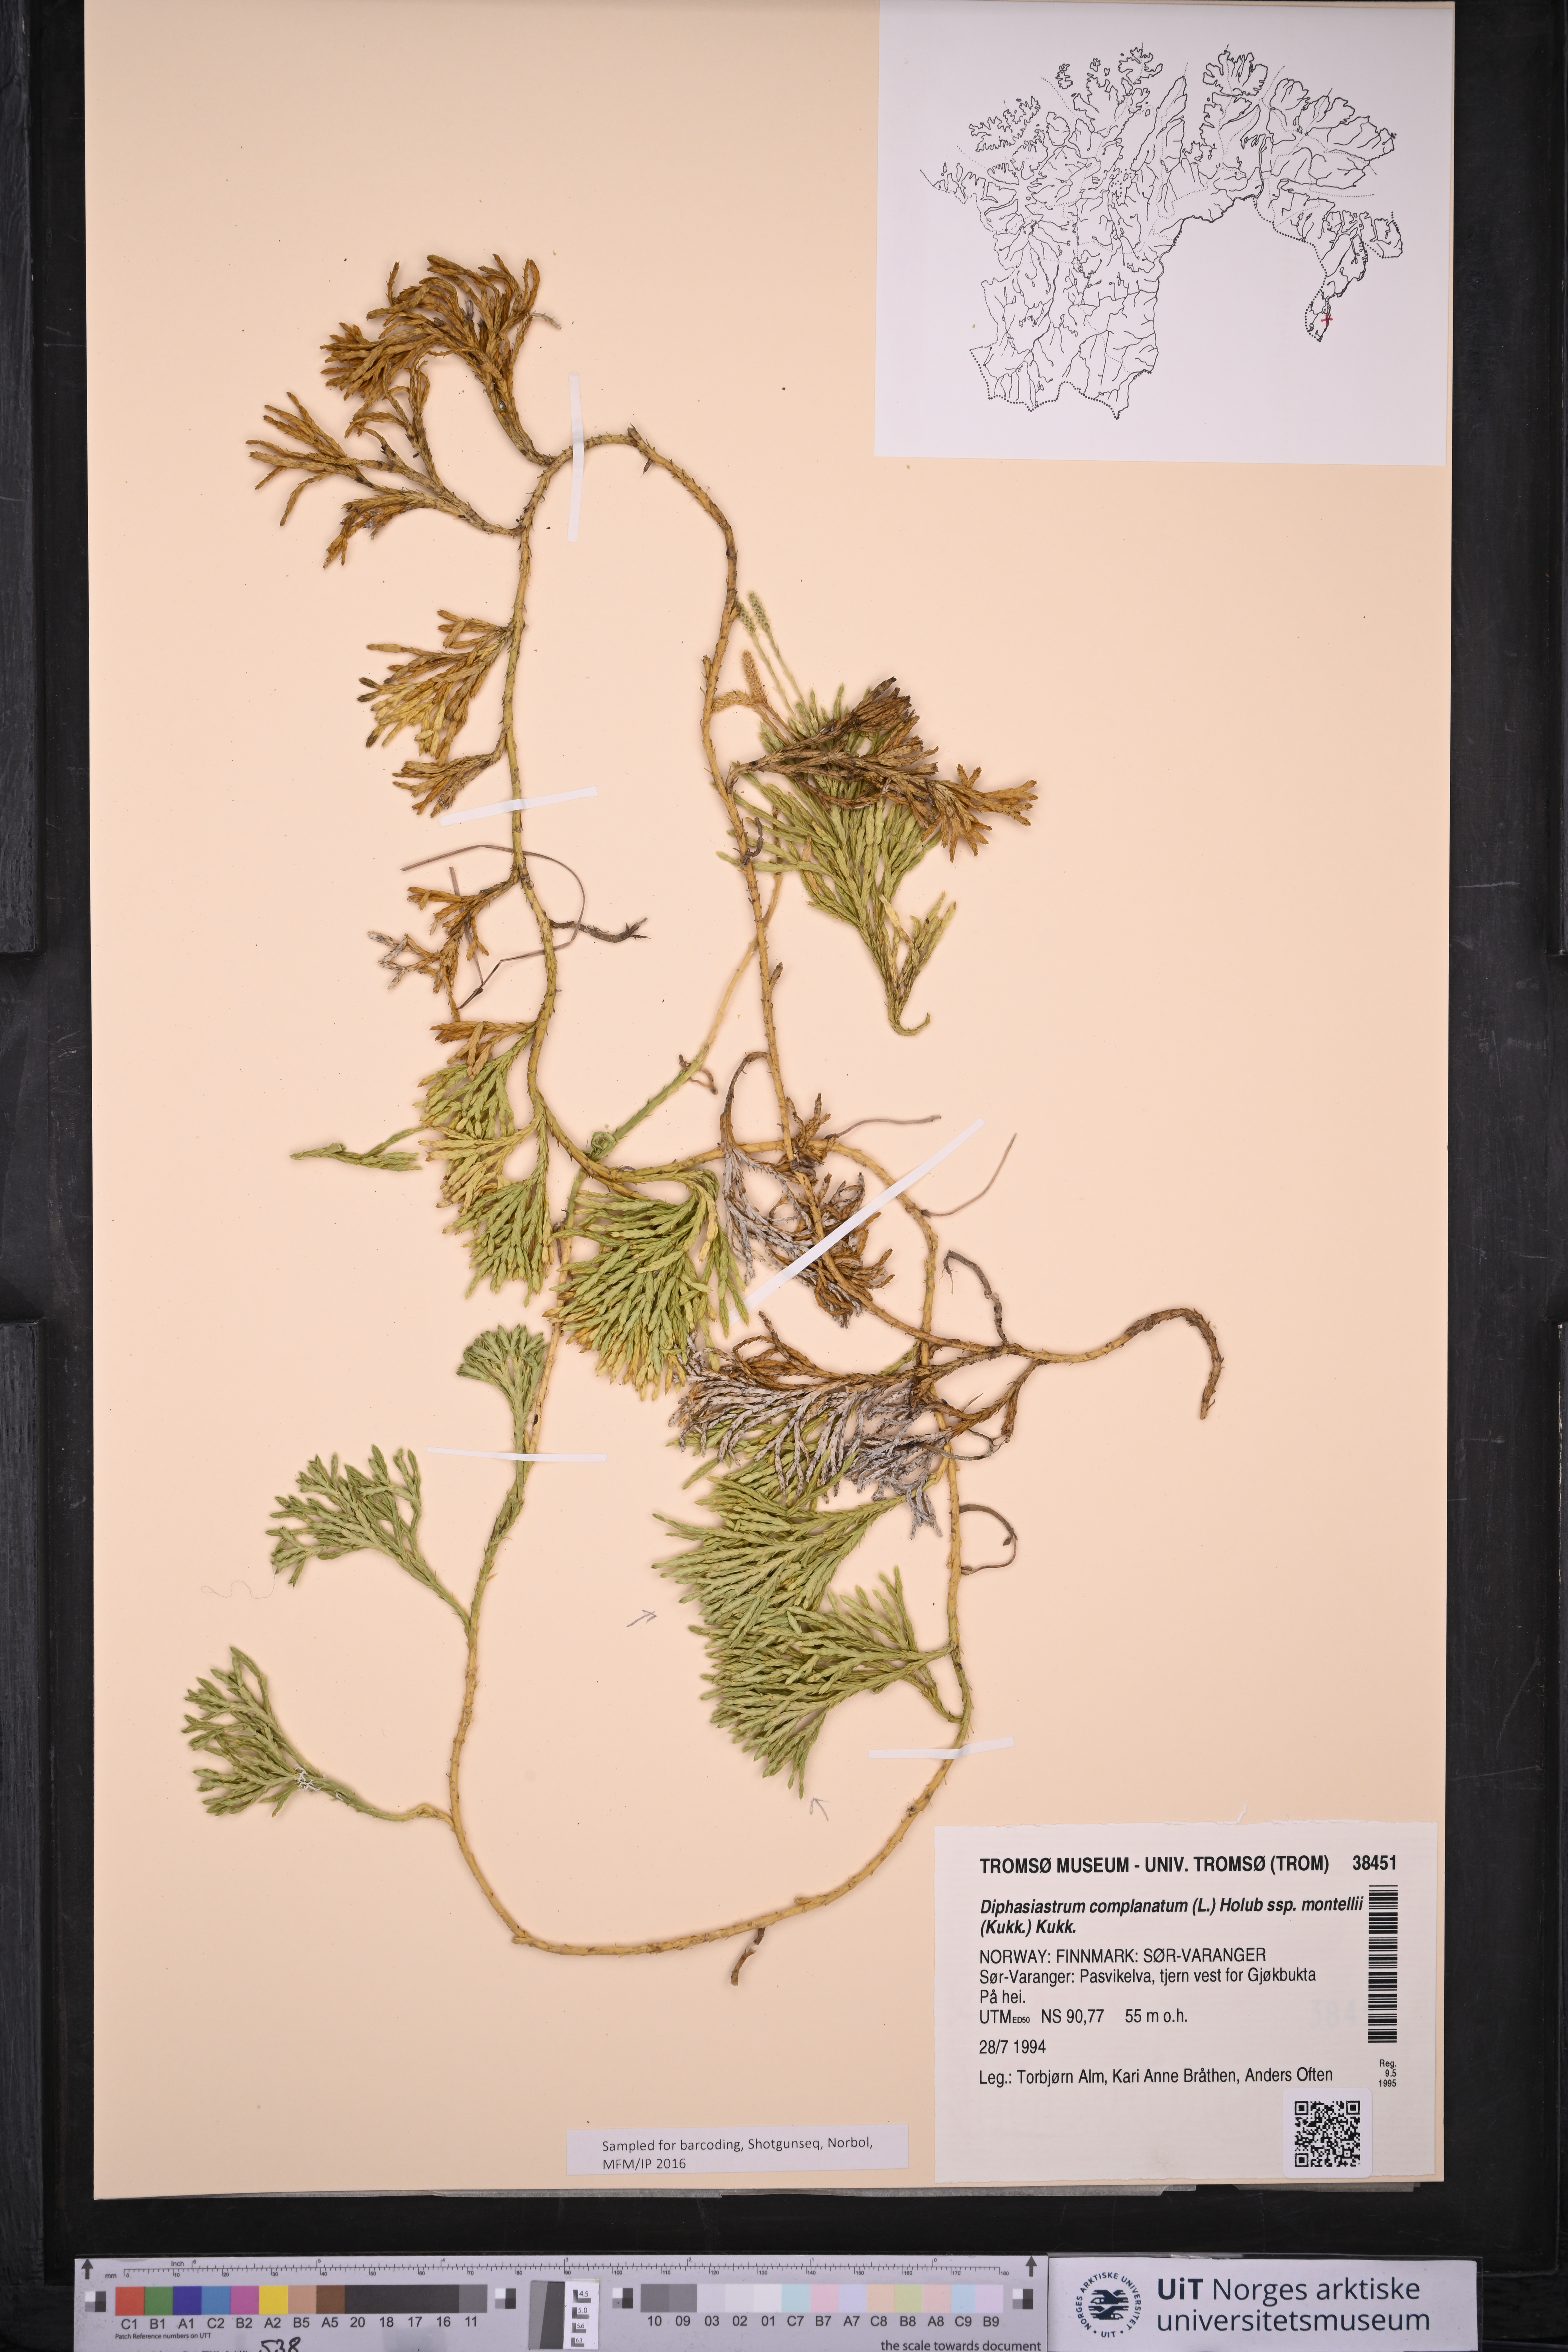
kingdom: Plantae
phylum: Tracheophyta
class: Lycopodiopsida
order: Lycopodiales
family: Lycopodiaceae
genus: Diphasiastrum
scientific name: Diphasiastrum complanatum
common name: Northern running-pine
